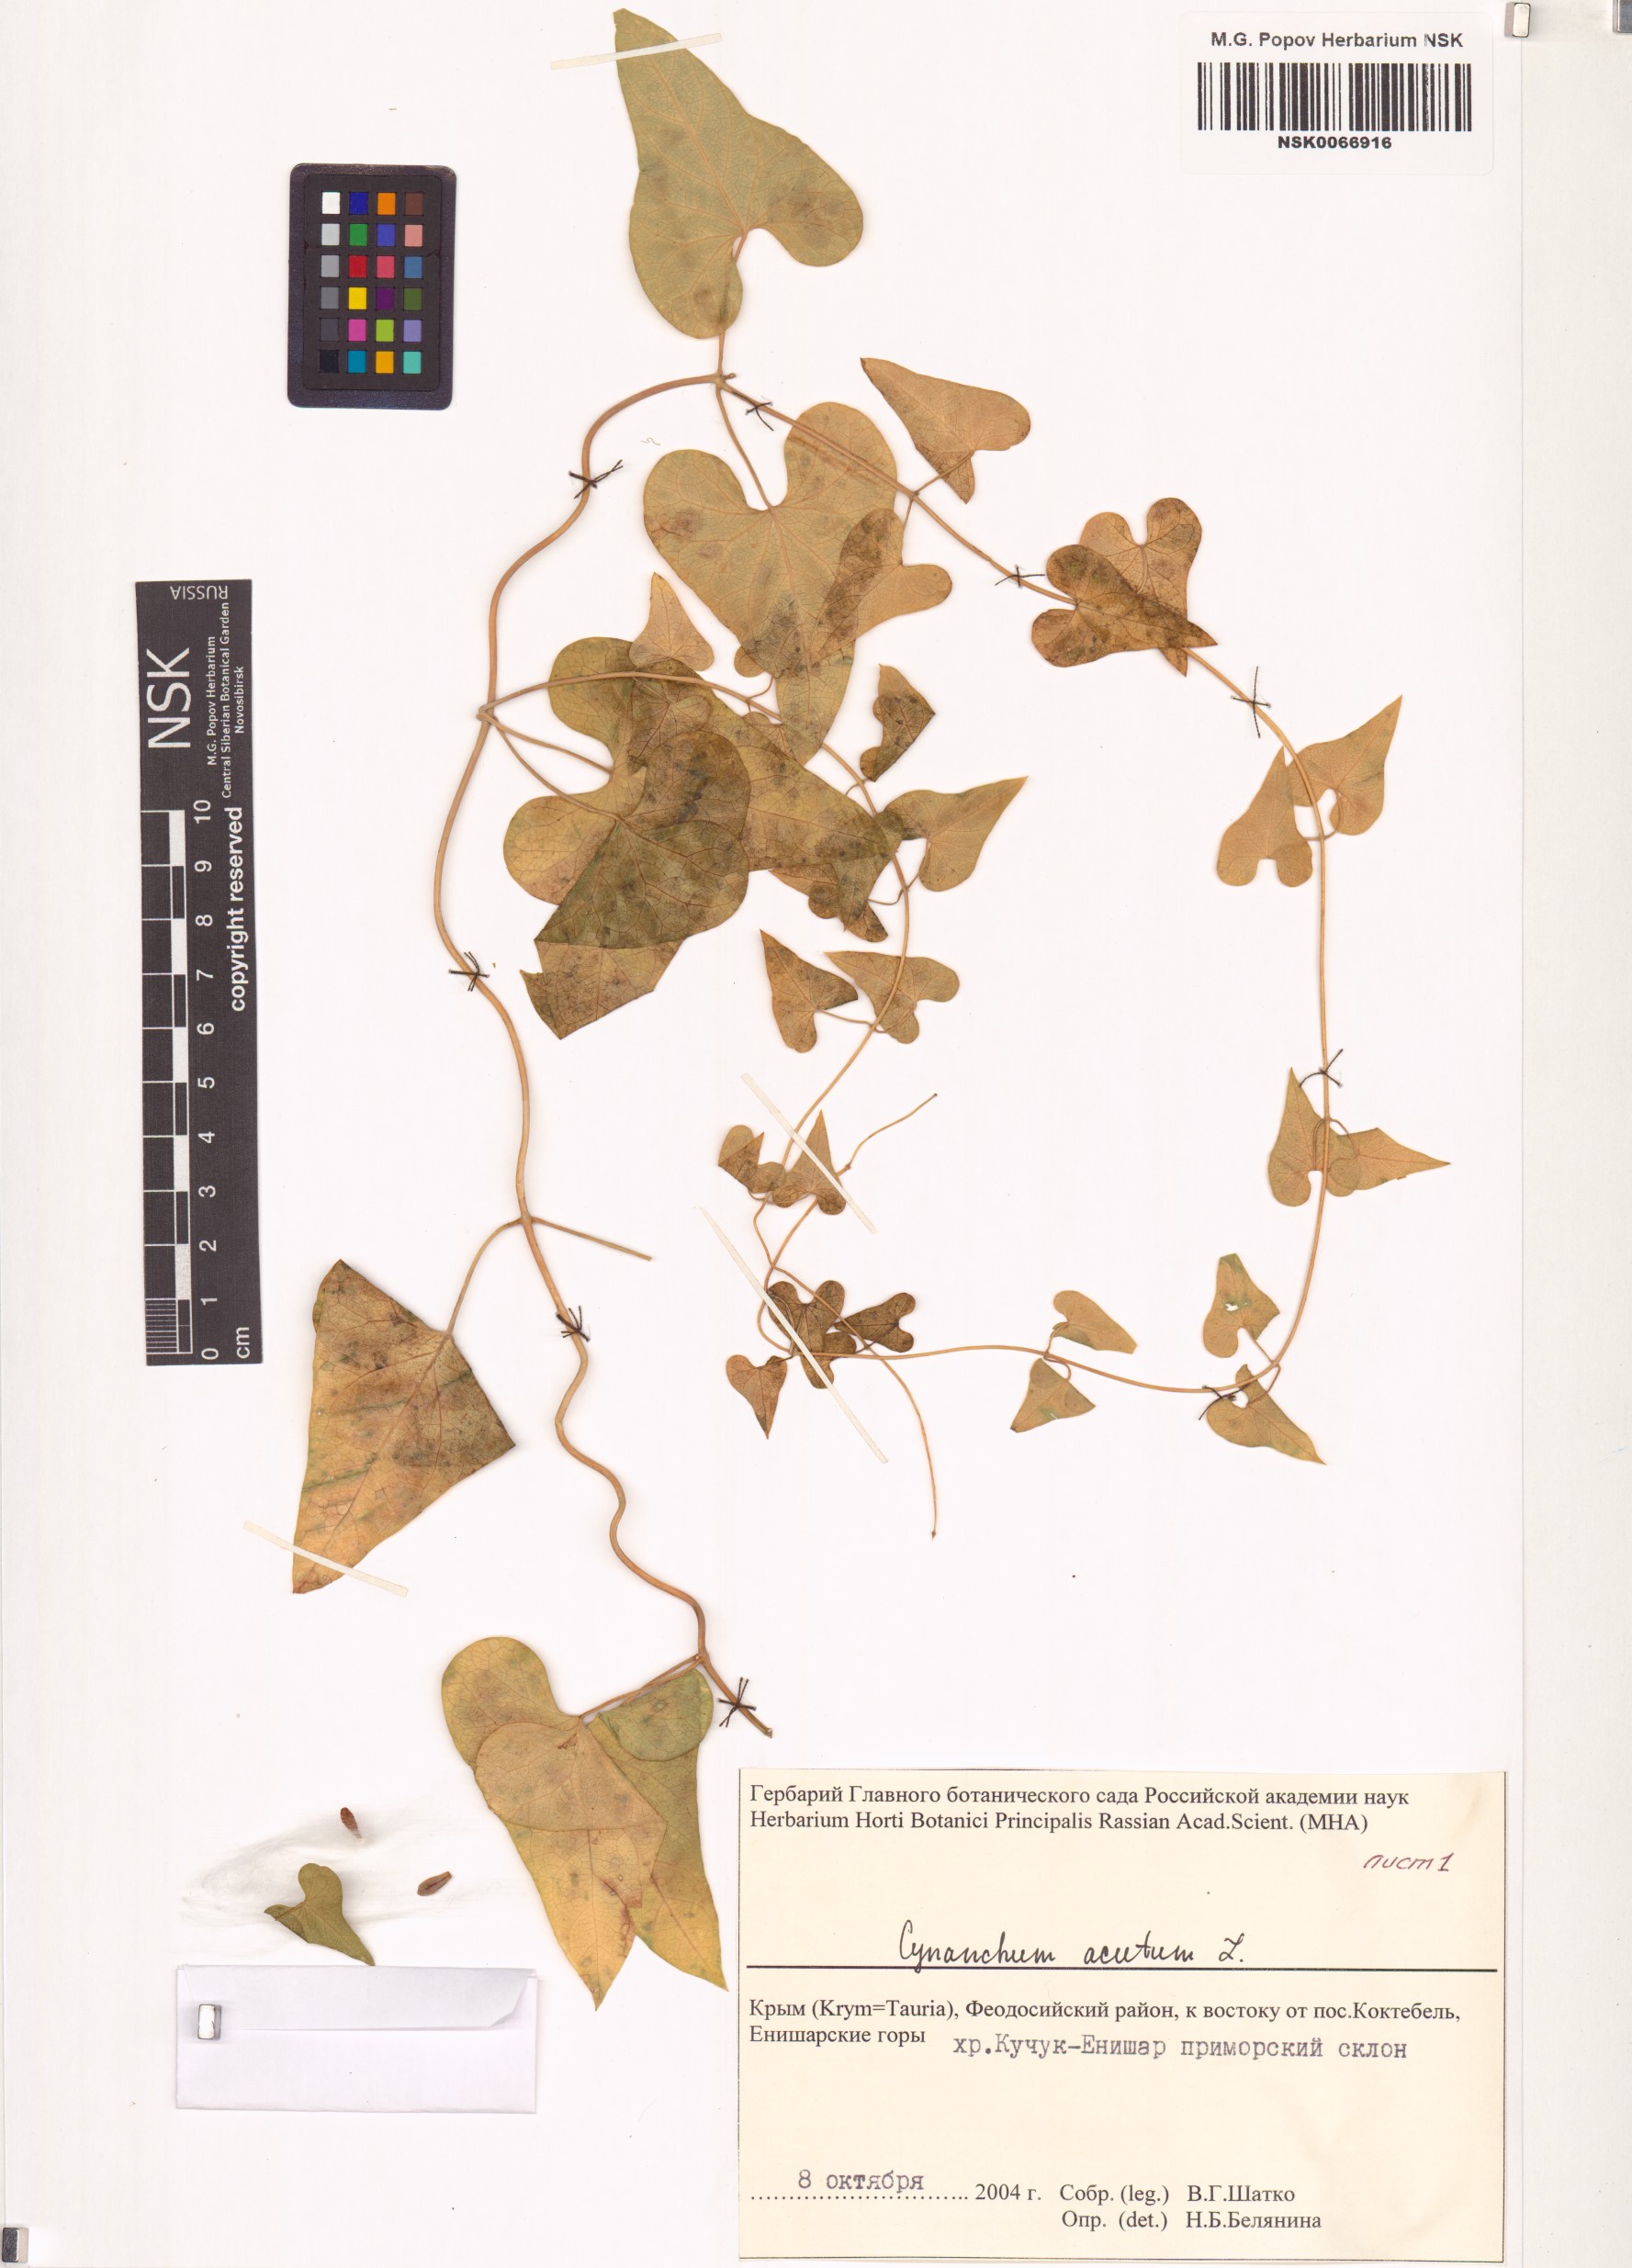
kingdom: Plantae
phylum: Tracheophyta
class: Magnoliopsida
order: Gentianales
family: Apocynaceae
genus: Cynanchum
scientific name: Cynanchum acutum
